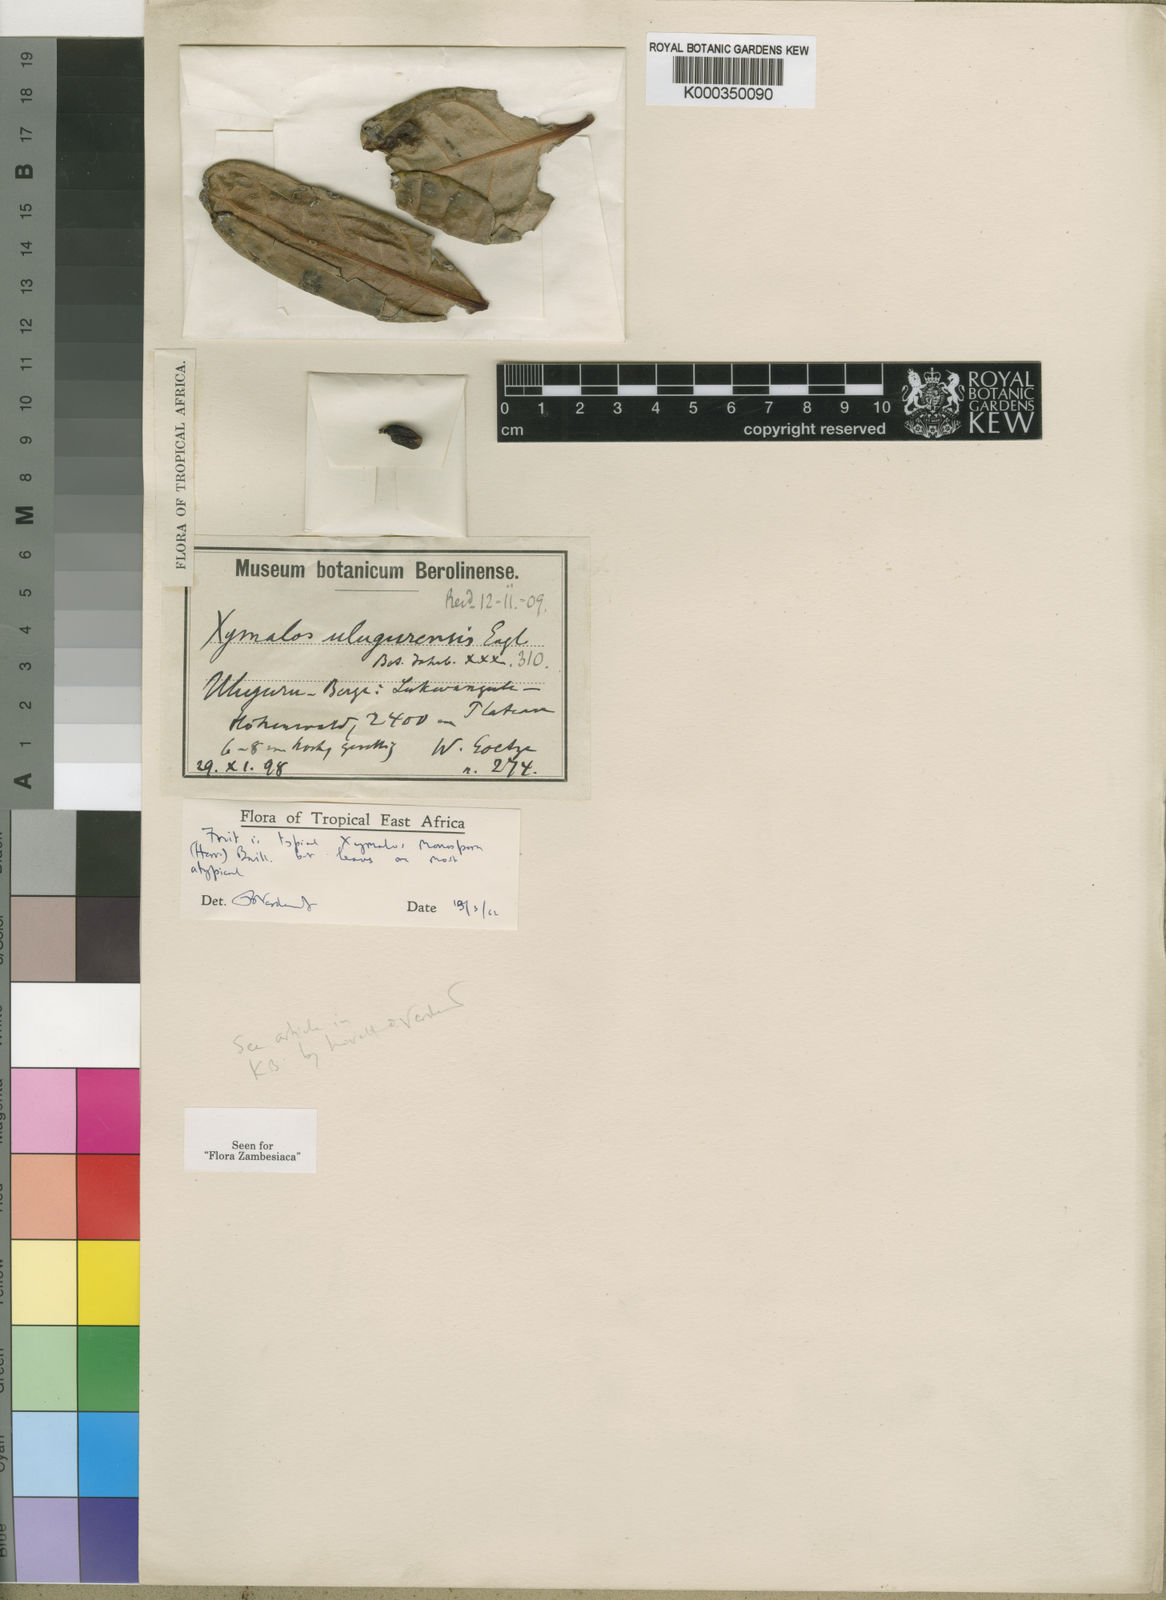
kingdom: Plantae
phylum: Tracheophyta
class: Magnoliopsida
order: Laurales
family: Monimiaceae
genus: Xymalos
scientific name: Xymalos monospora
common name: Lemonwood
